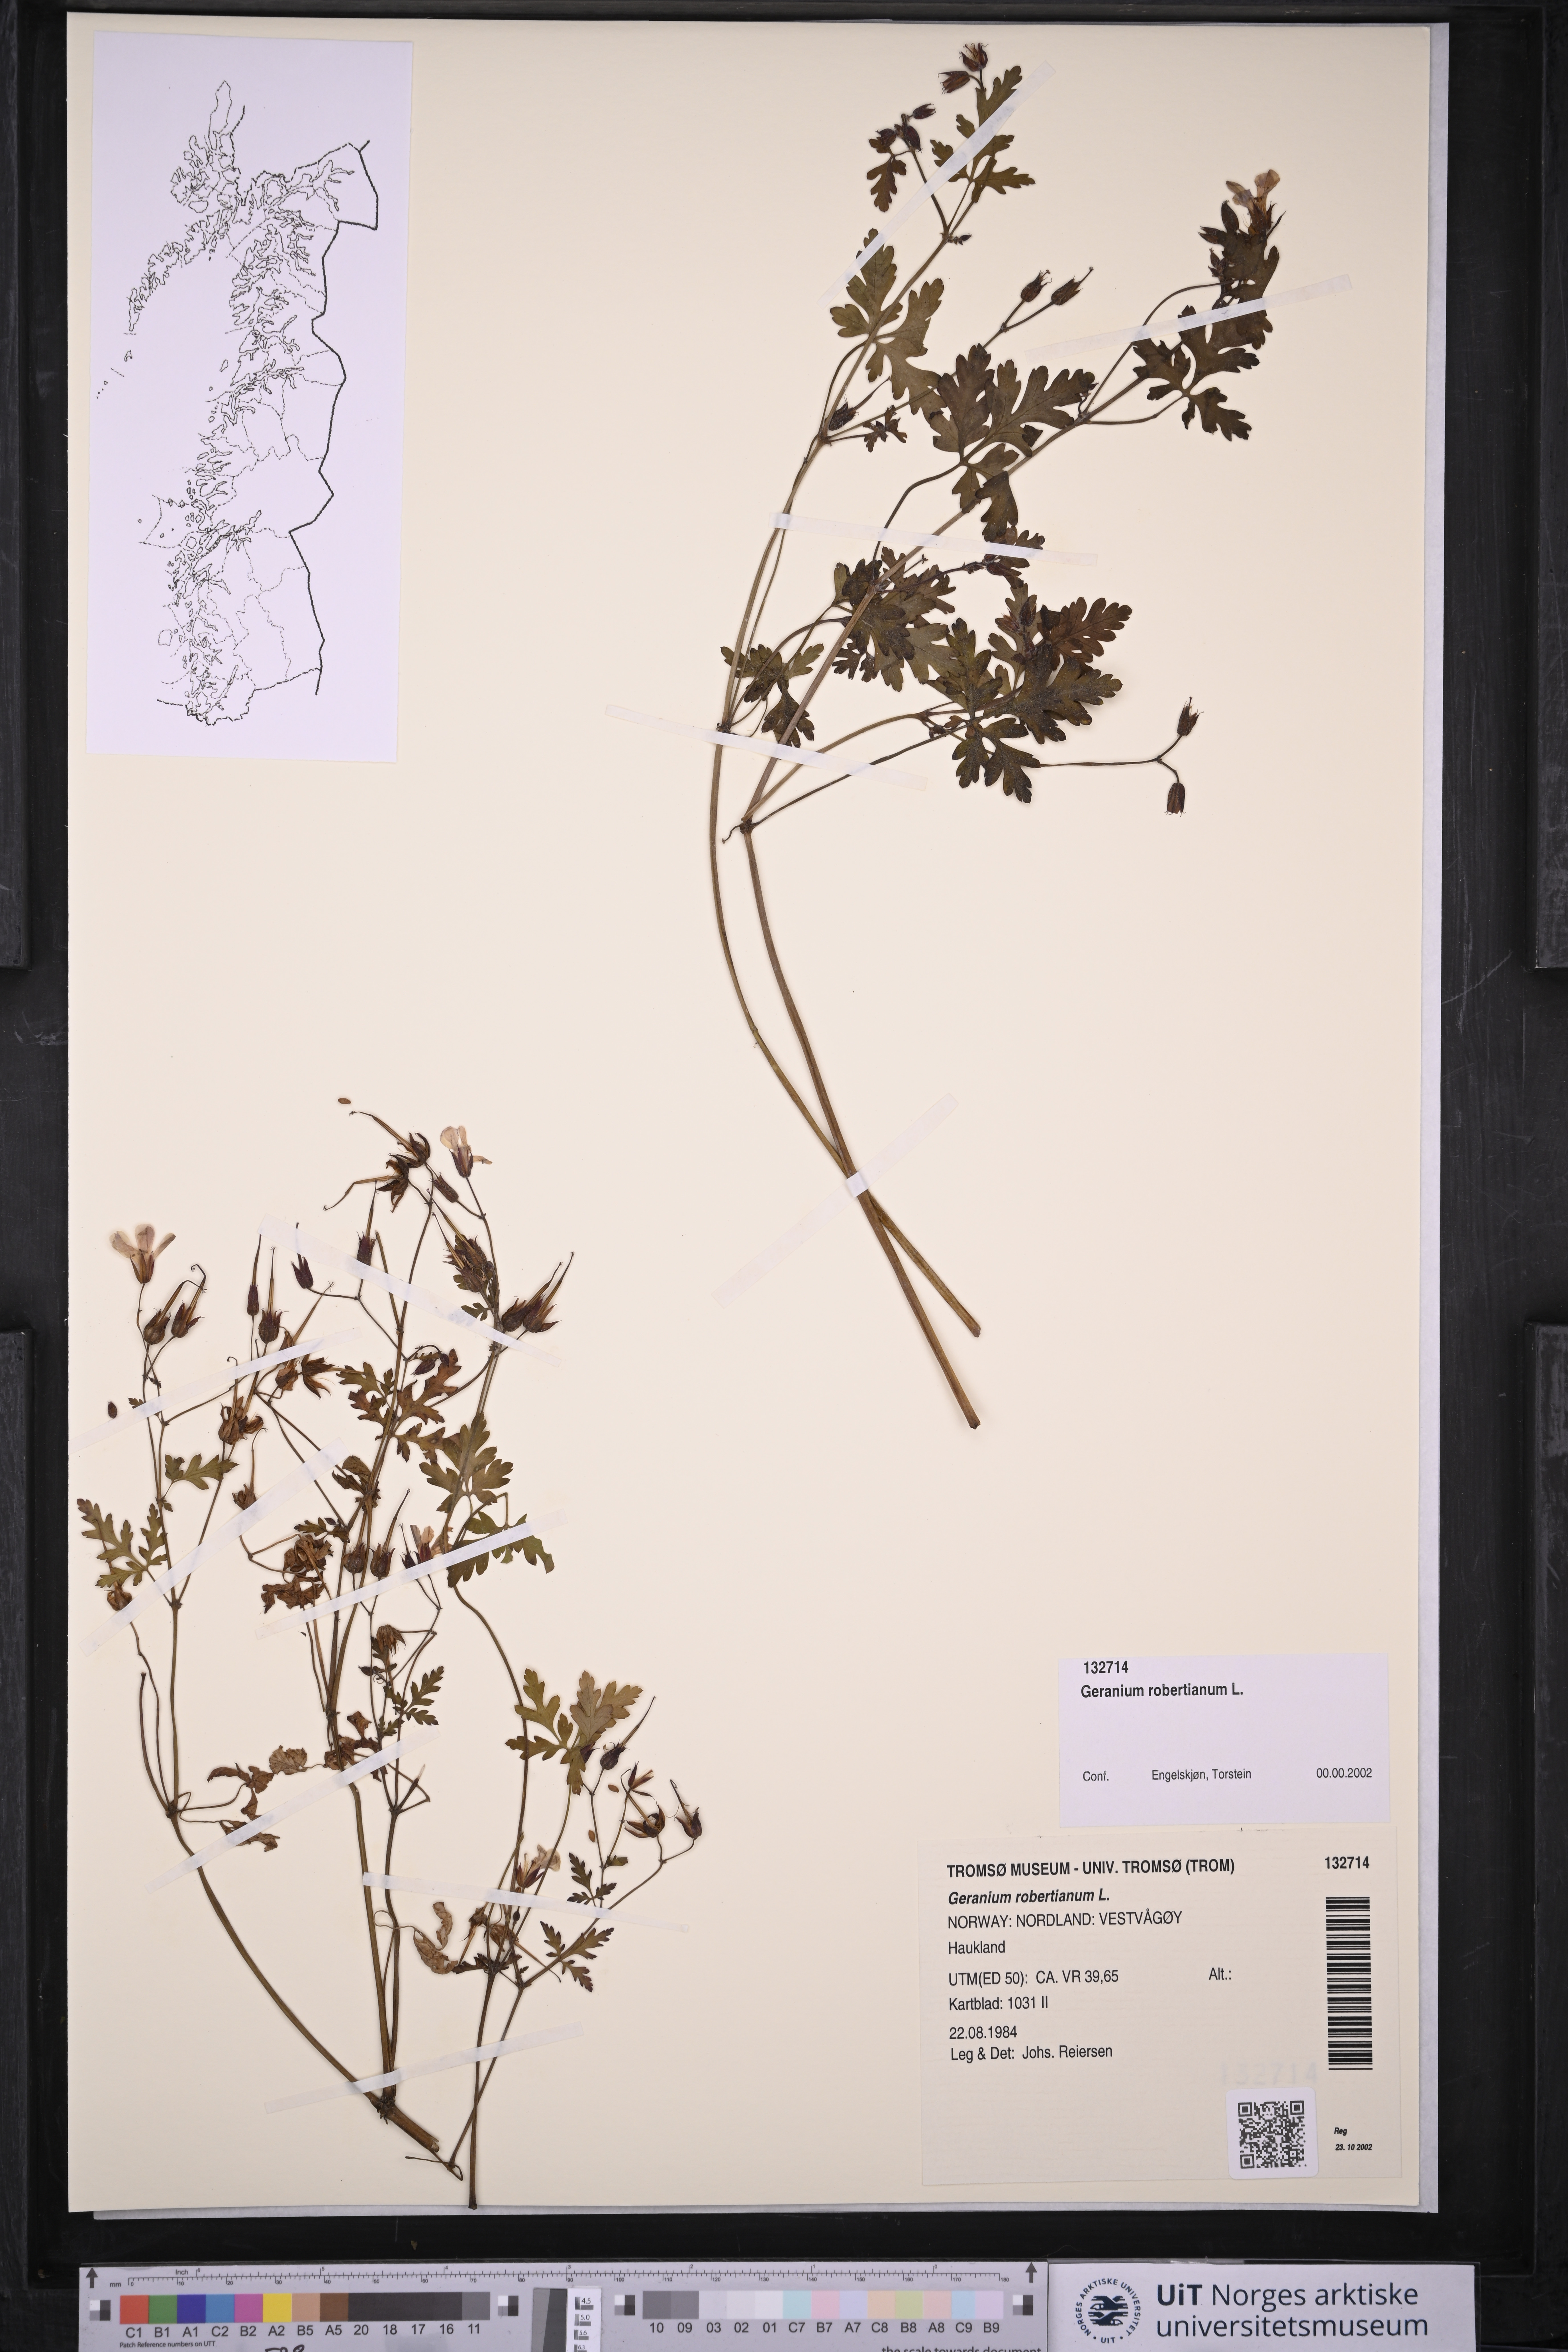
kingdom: Plantae
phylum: Tracheophyta
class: Magnoliopsida
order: Geraniales
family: Geraniaceae
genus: Geranium
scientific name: Geranium robertianum
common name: Herb-robert
